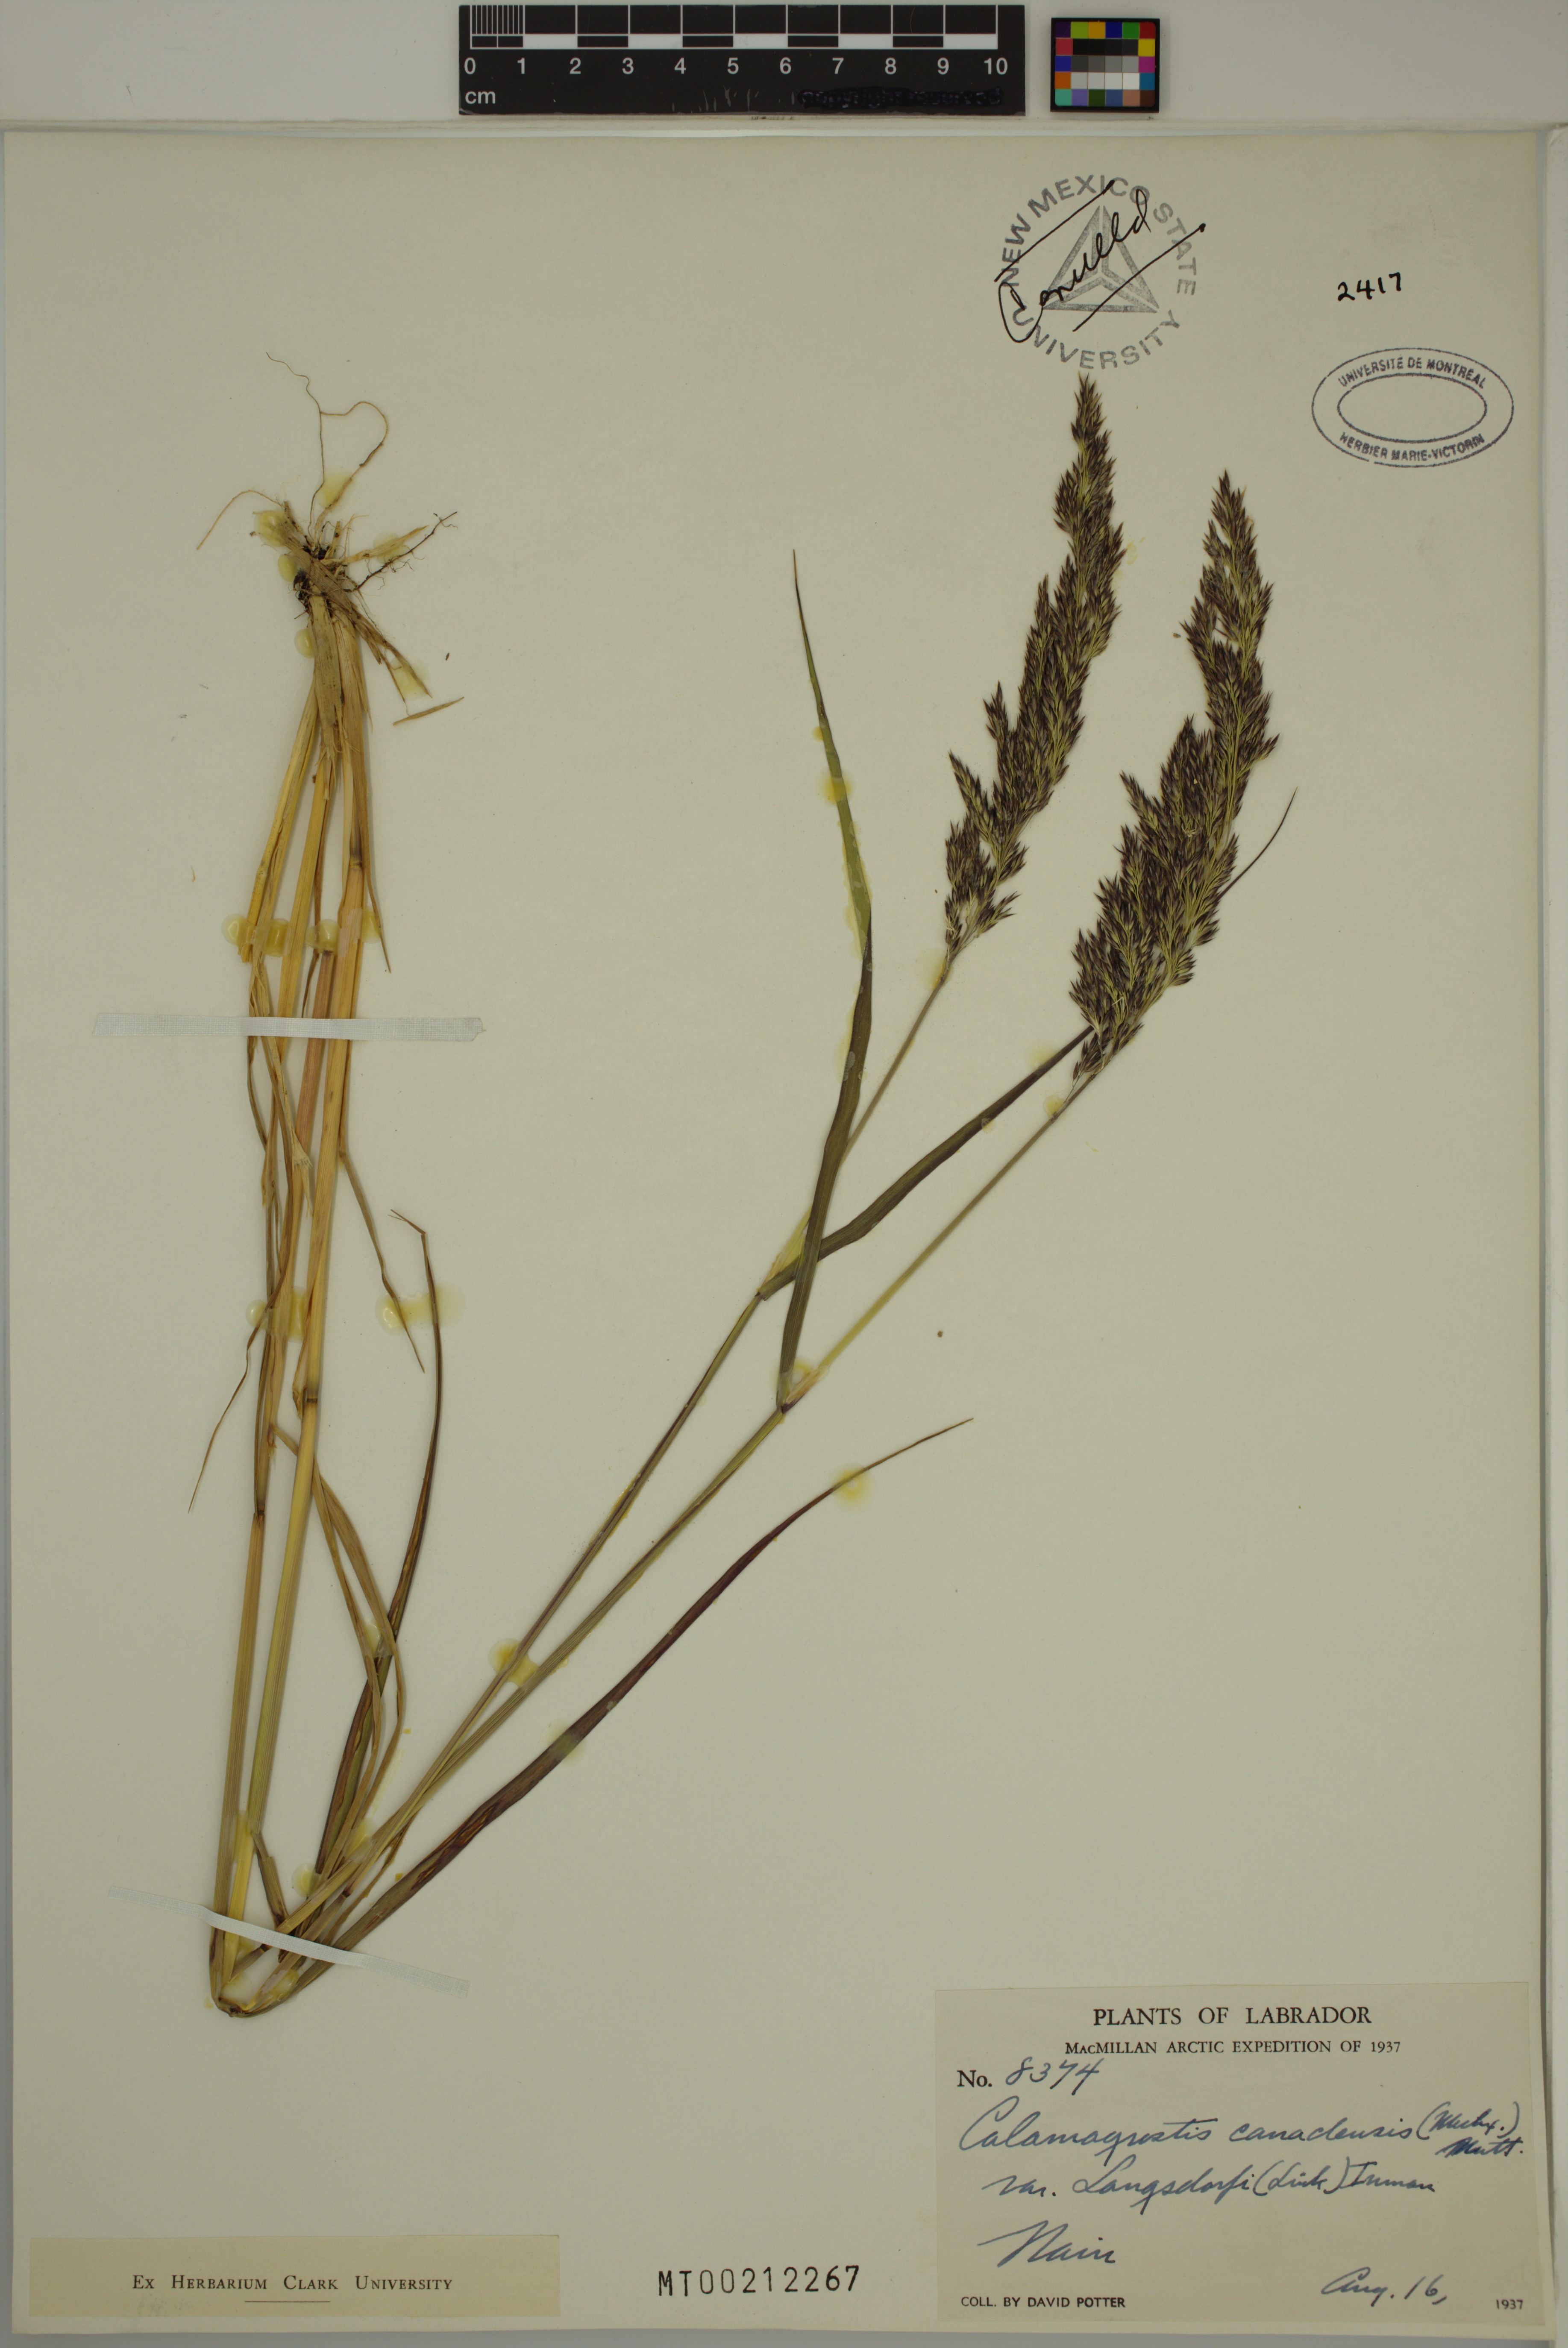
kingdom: Plantae
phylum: Tracheophyta
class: Liliopsida
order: Poales
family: Poaceae
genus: Calamagrostis
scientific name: Calamagrostis purpurea
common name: Scandinavian small-reed
